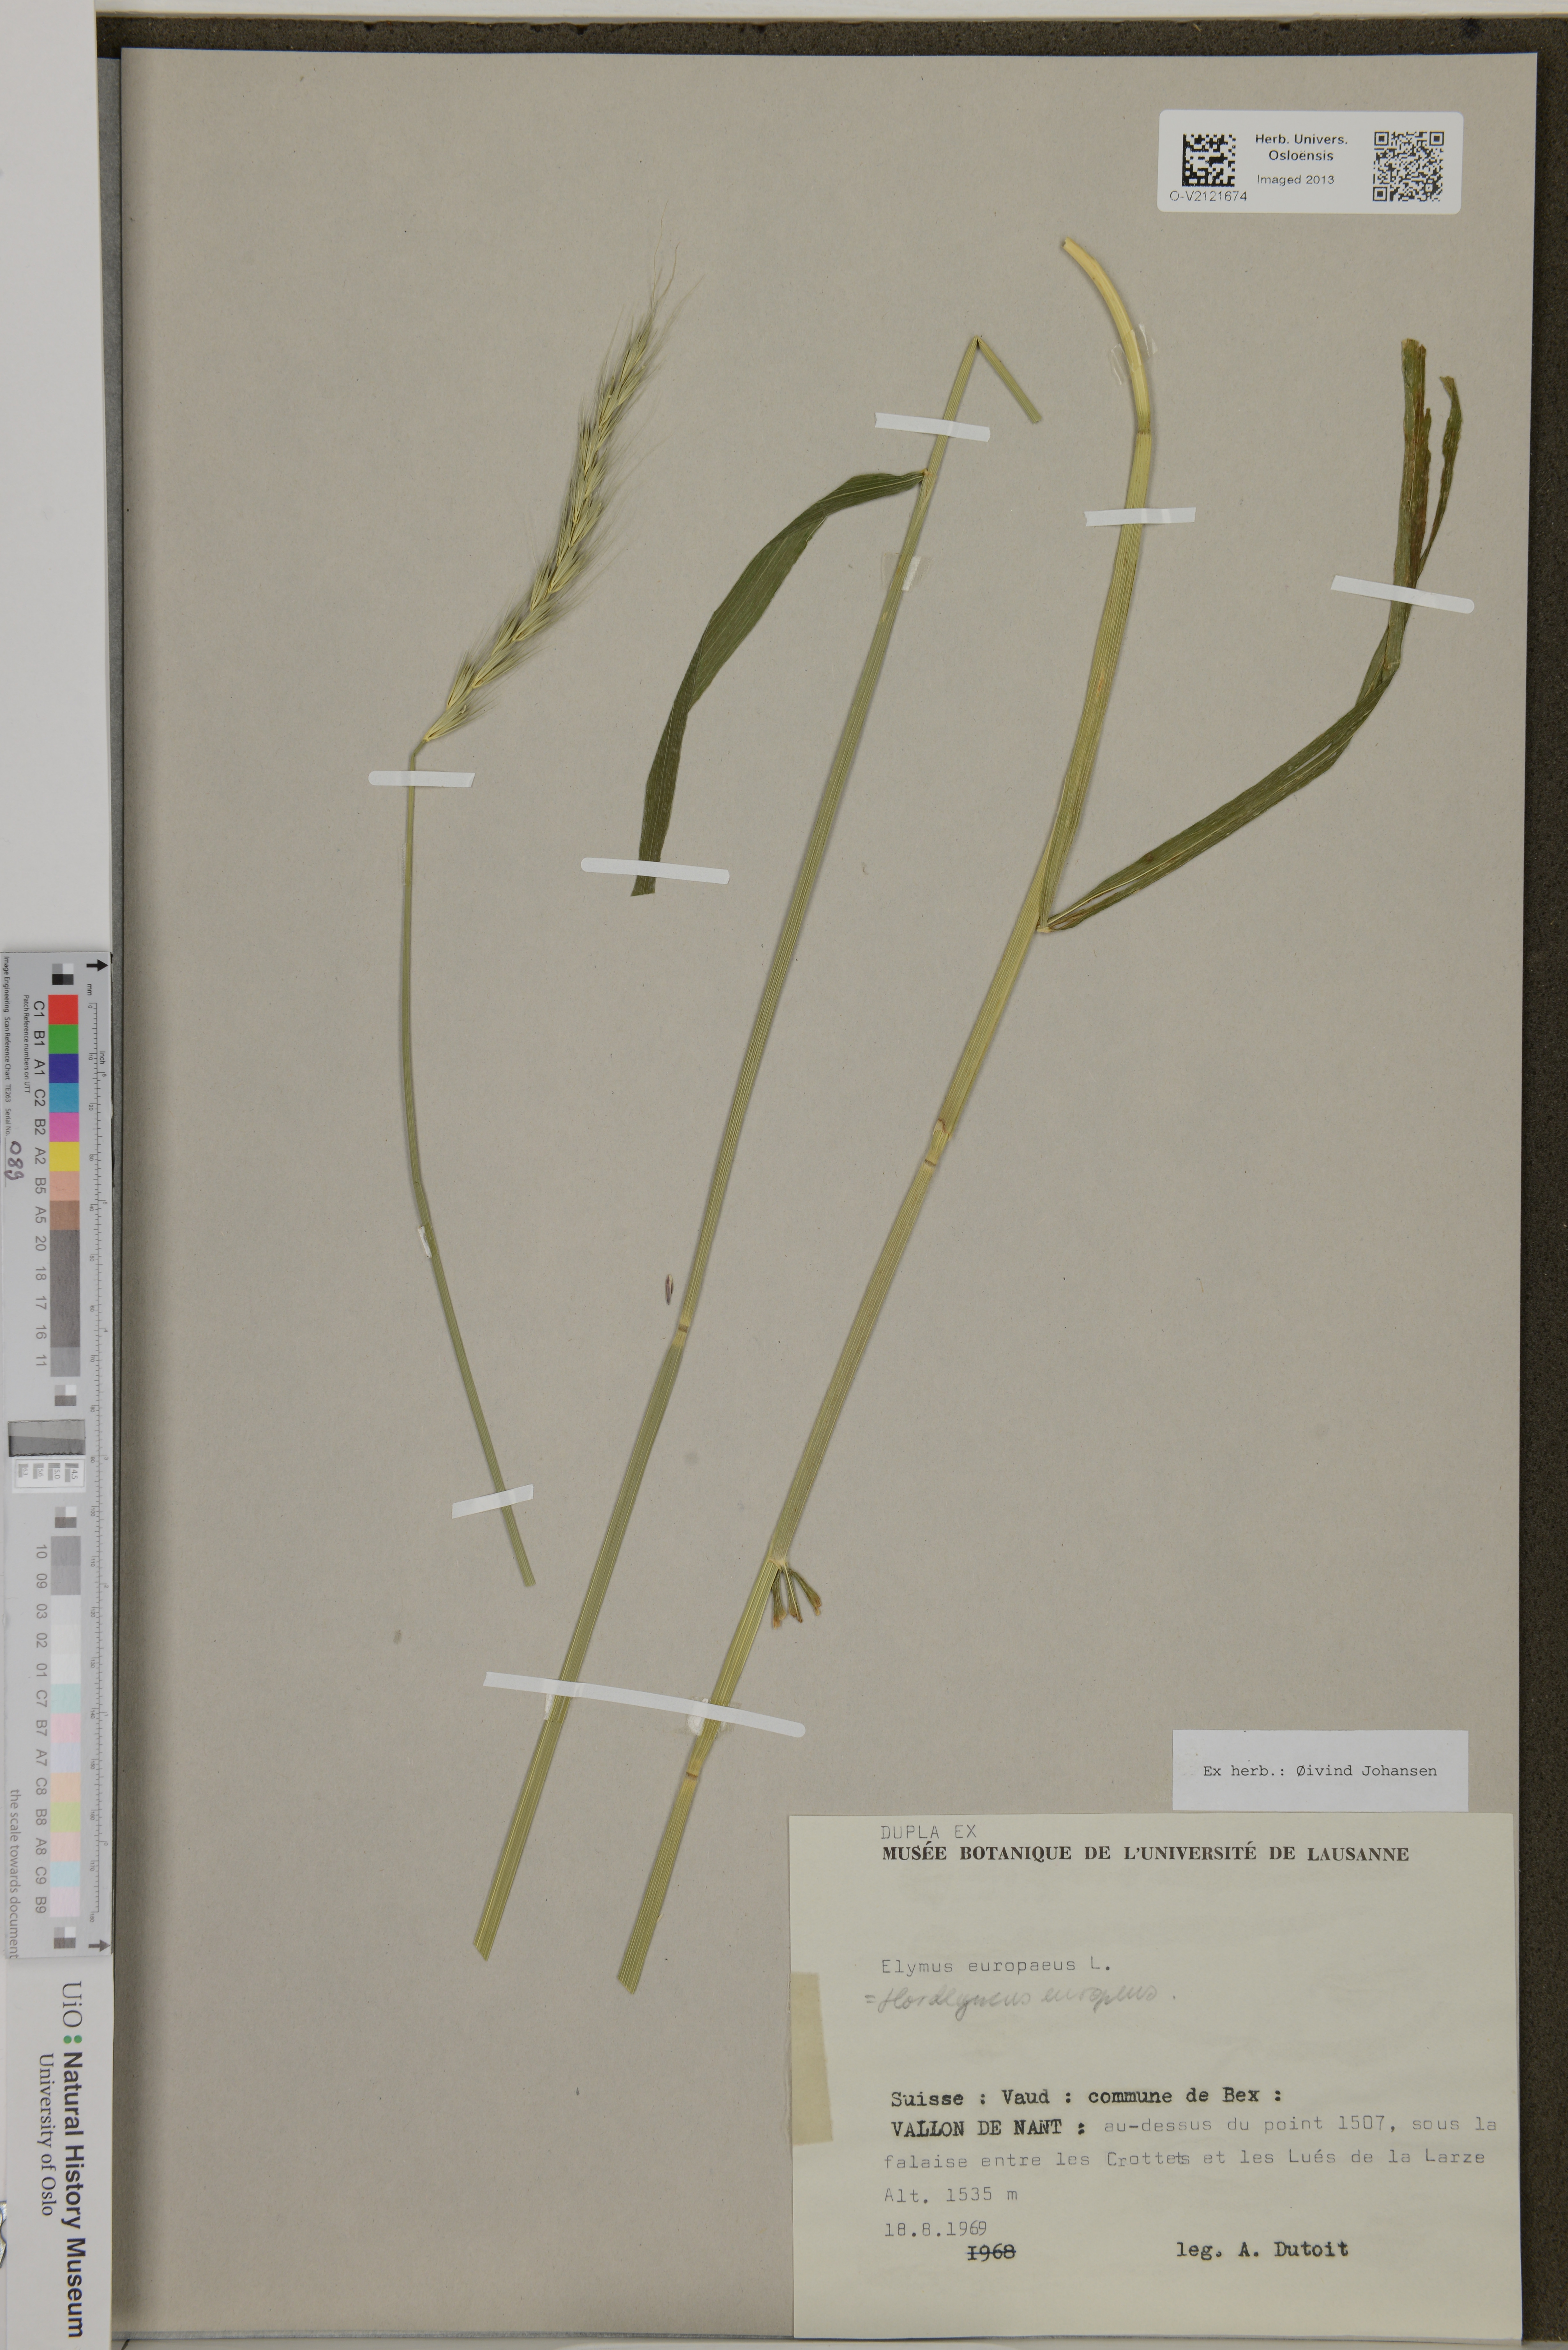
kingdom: Plantae
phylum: Tracheophyta
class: Liliopsida
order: Poales
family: Poaceae
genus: Elymus
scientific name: Elymus europaeus
